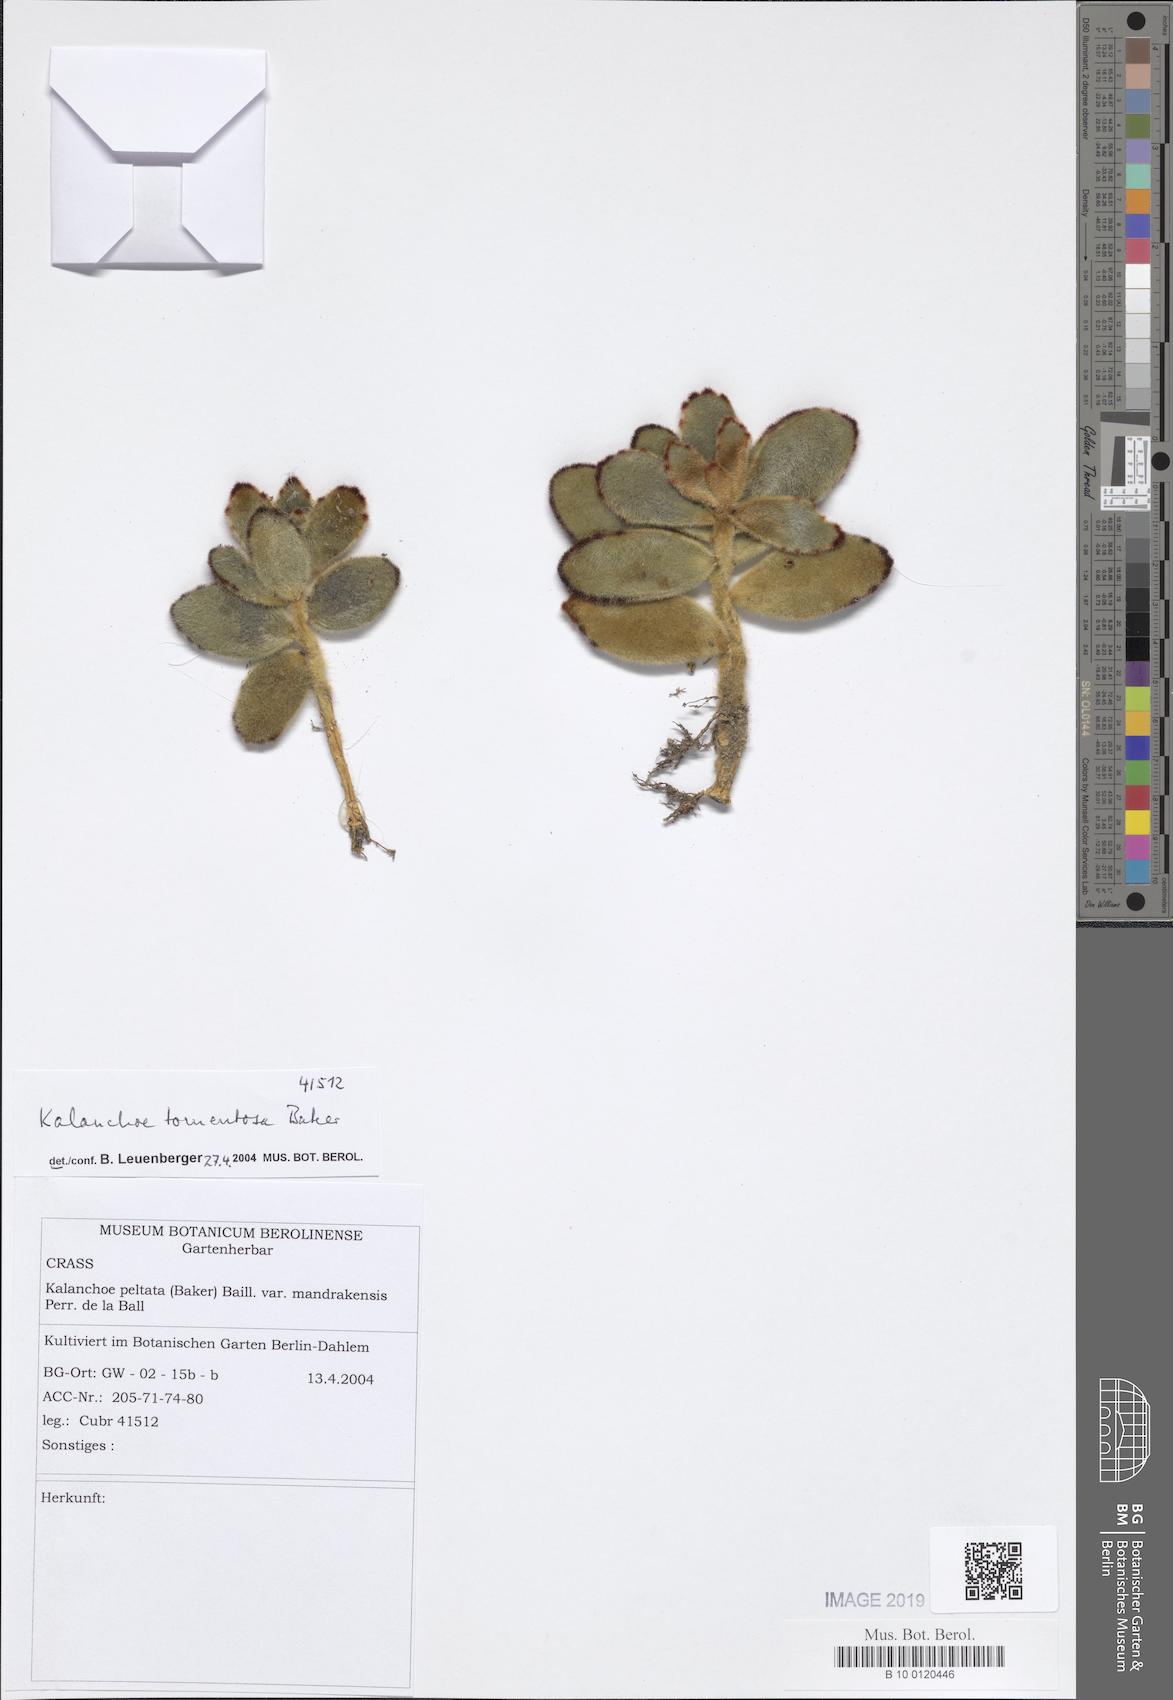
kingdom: Plantae
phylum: Tracheophyta
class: Magnoliopsida
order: Saxifragales
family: Crassulaceae
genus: Kalanchoe
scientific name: Kalanchoe tomentosa
